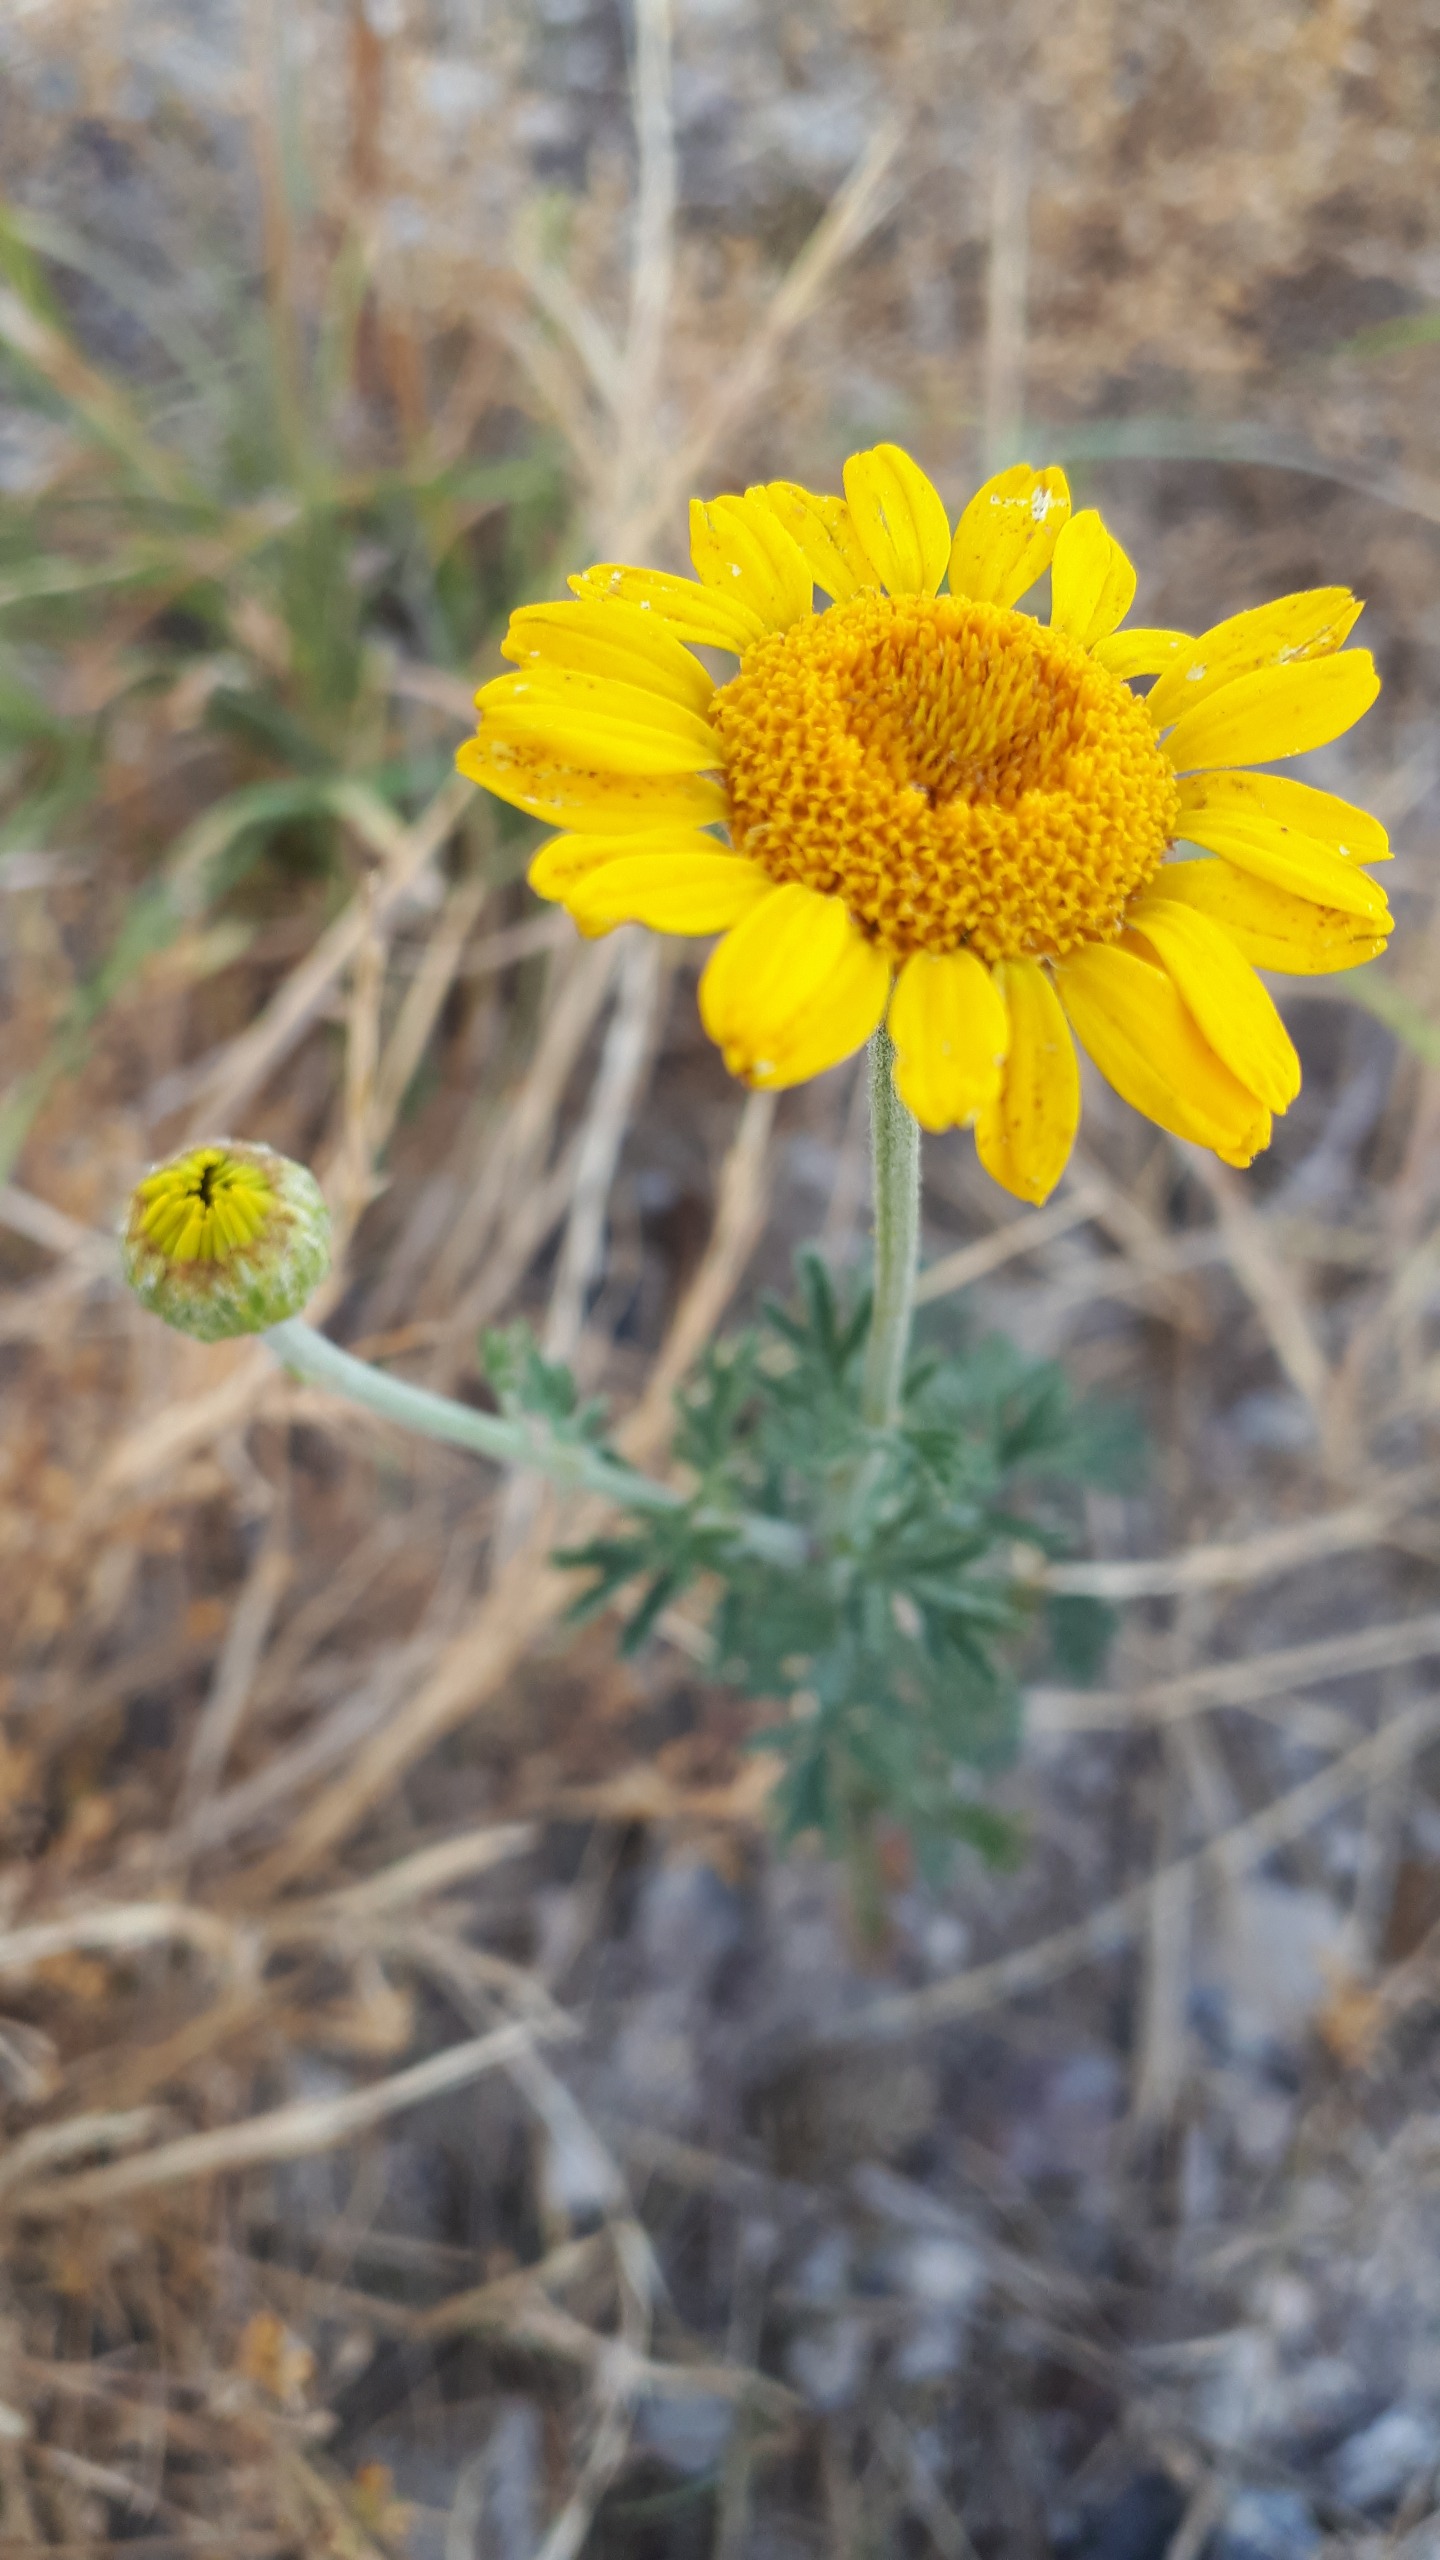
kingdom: Plantae
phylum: Tracheophyta
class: Magnoliopsida
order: Asterales
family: Asteraceae
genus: Cota
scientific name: Cota tinctoria
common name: Farve-gåseurt
